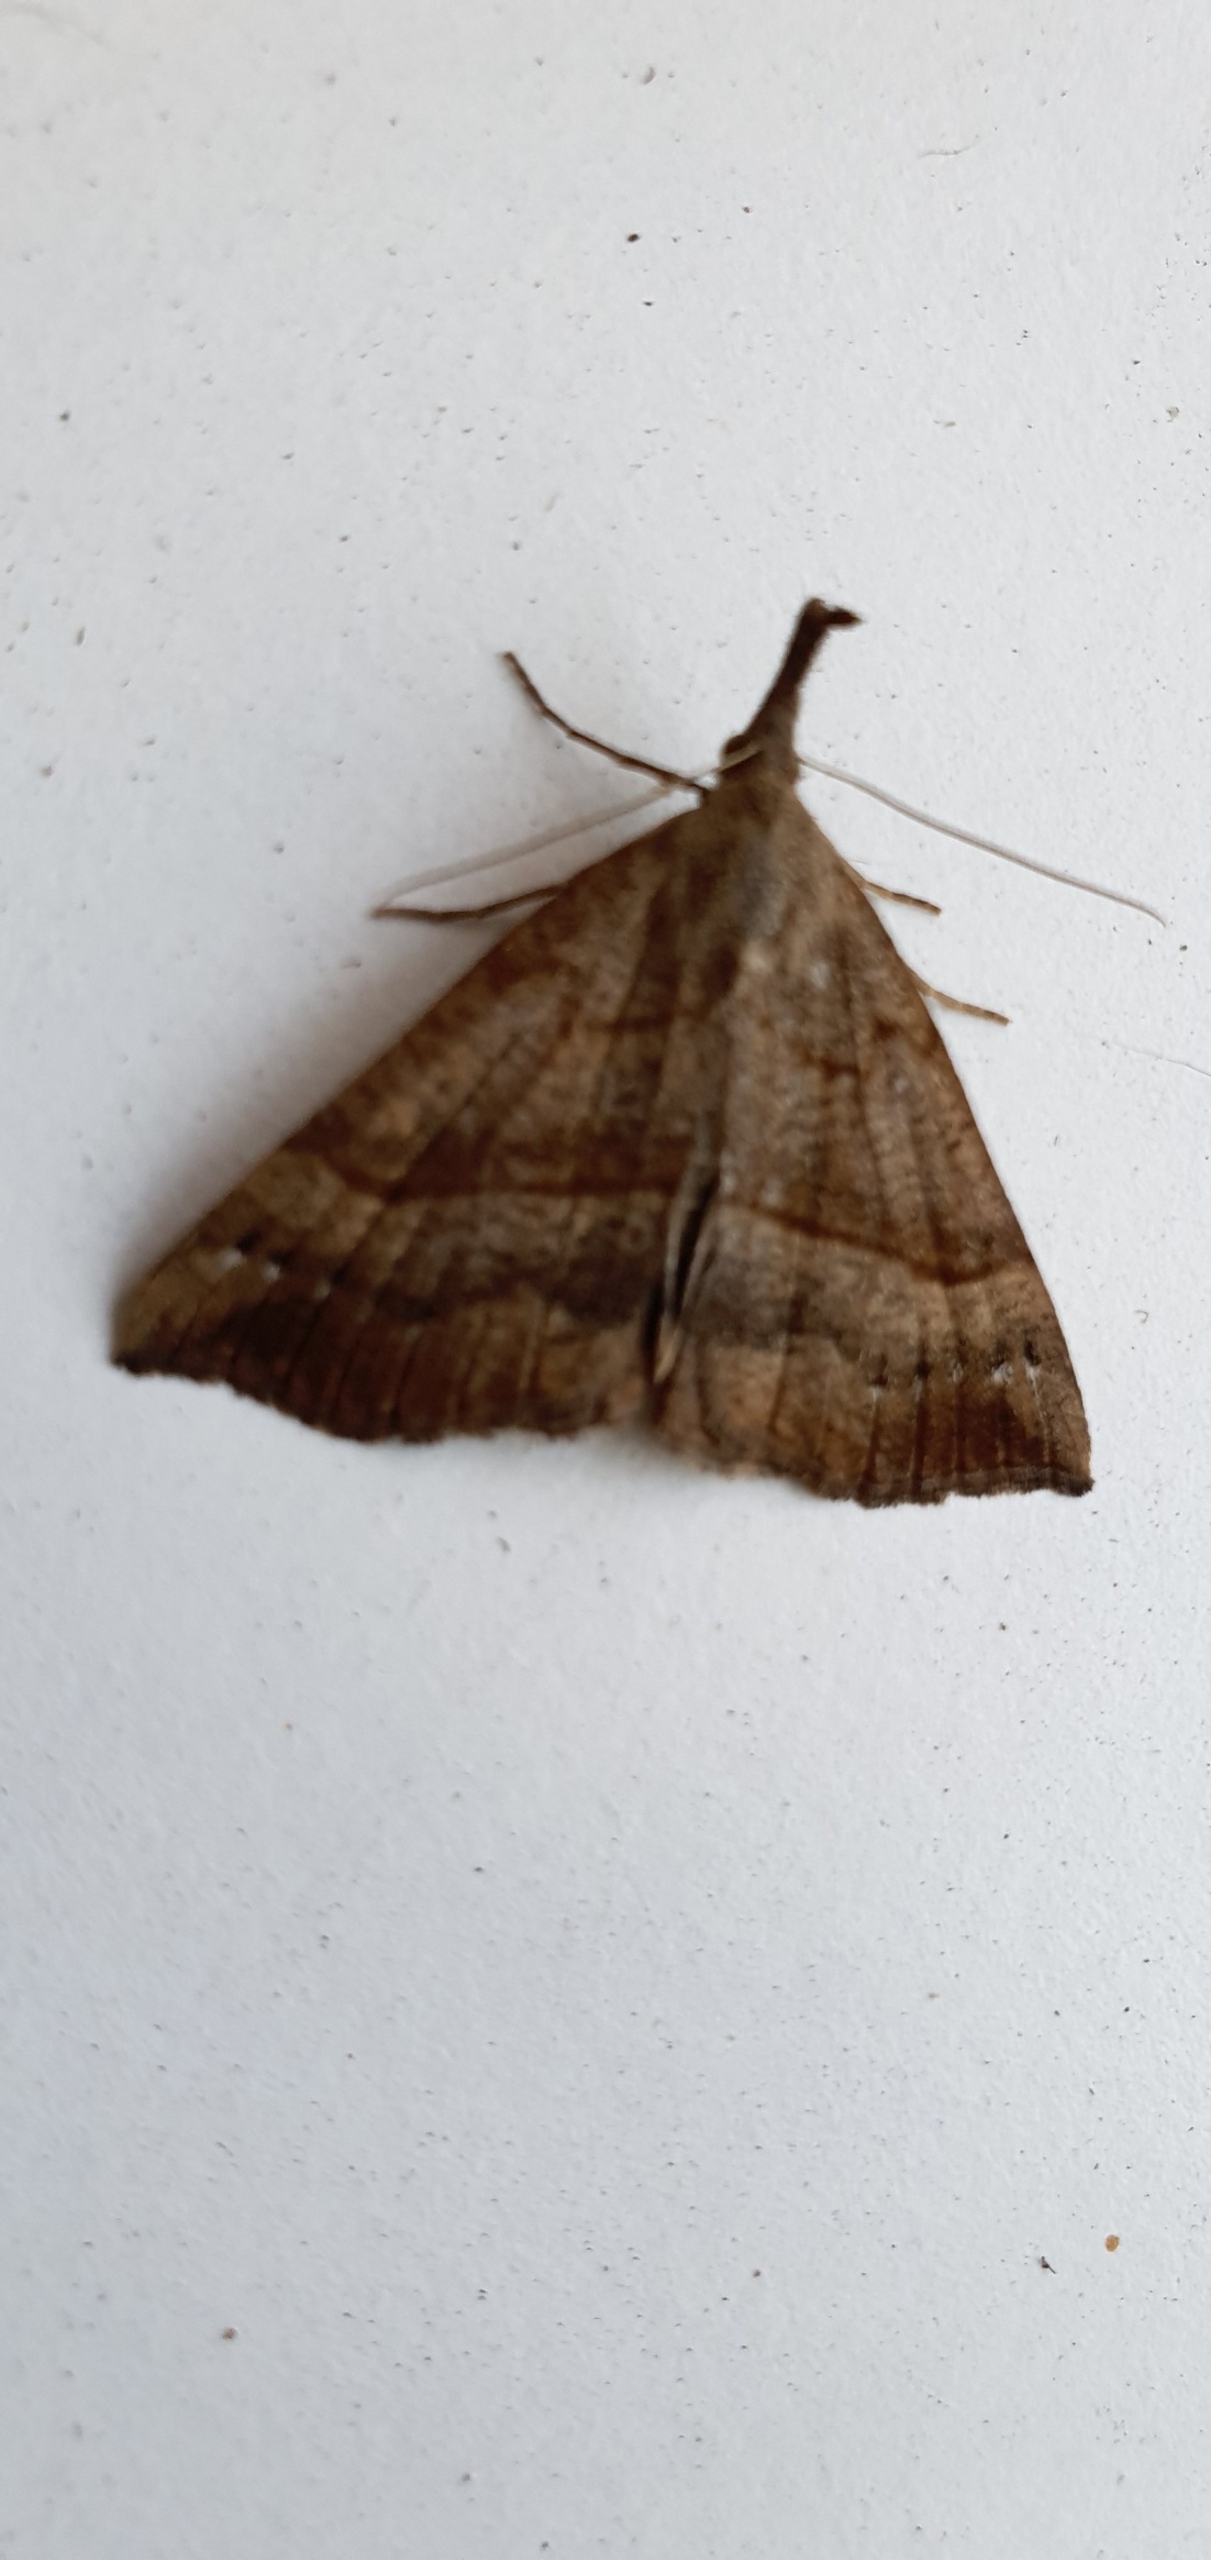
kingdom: Animalia
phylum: Arthropoda
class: Insecta
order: Lepidoptera
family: Erebidae
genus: Hypena
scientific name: Hypena proboscidalis
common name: Snudeugle
